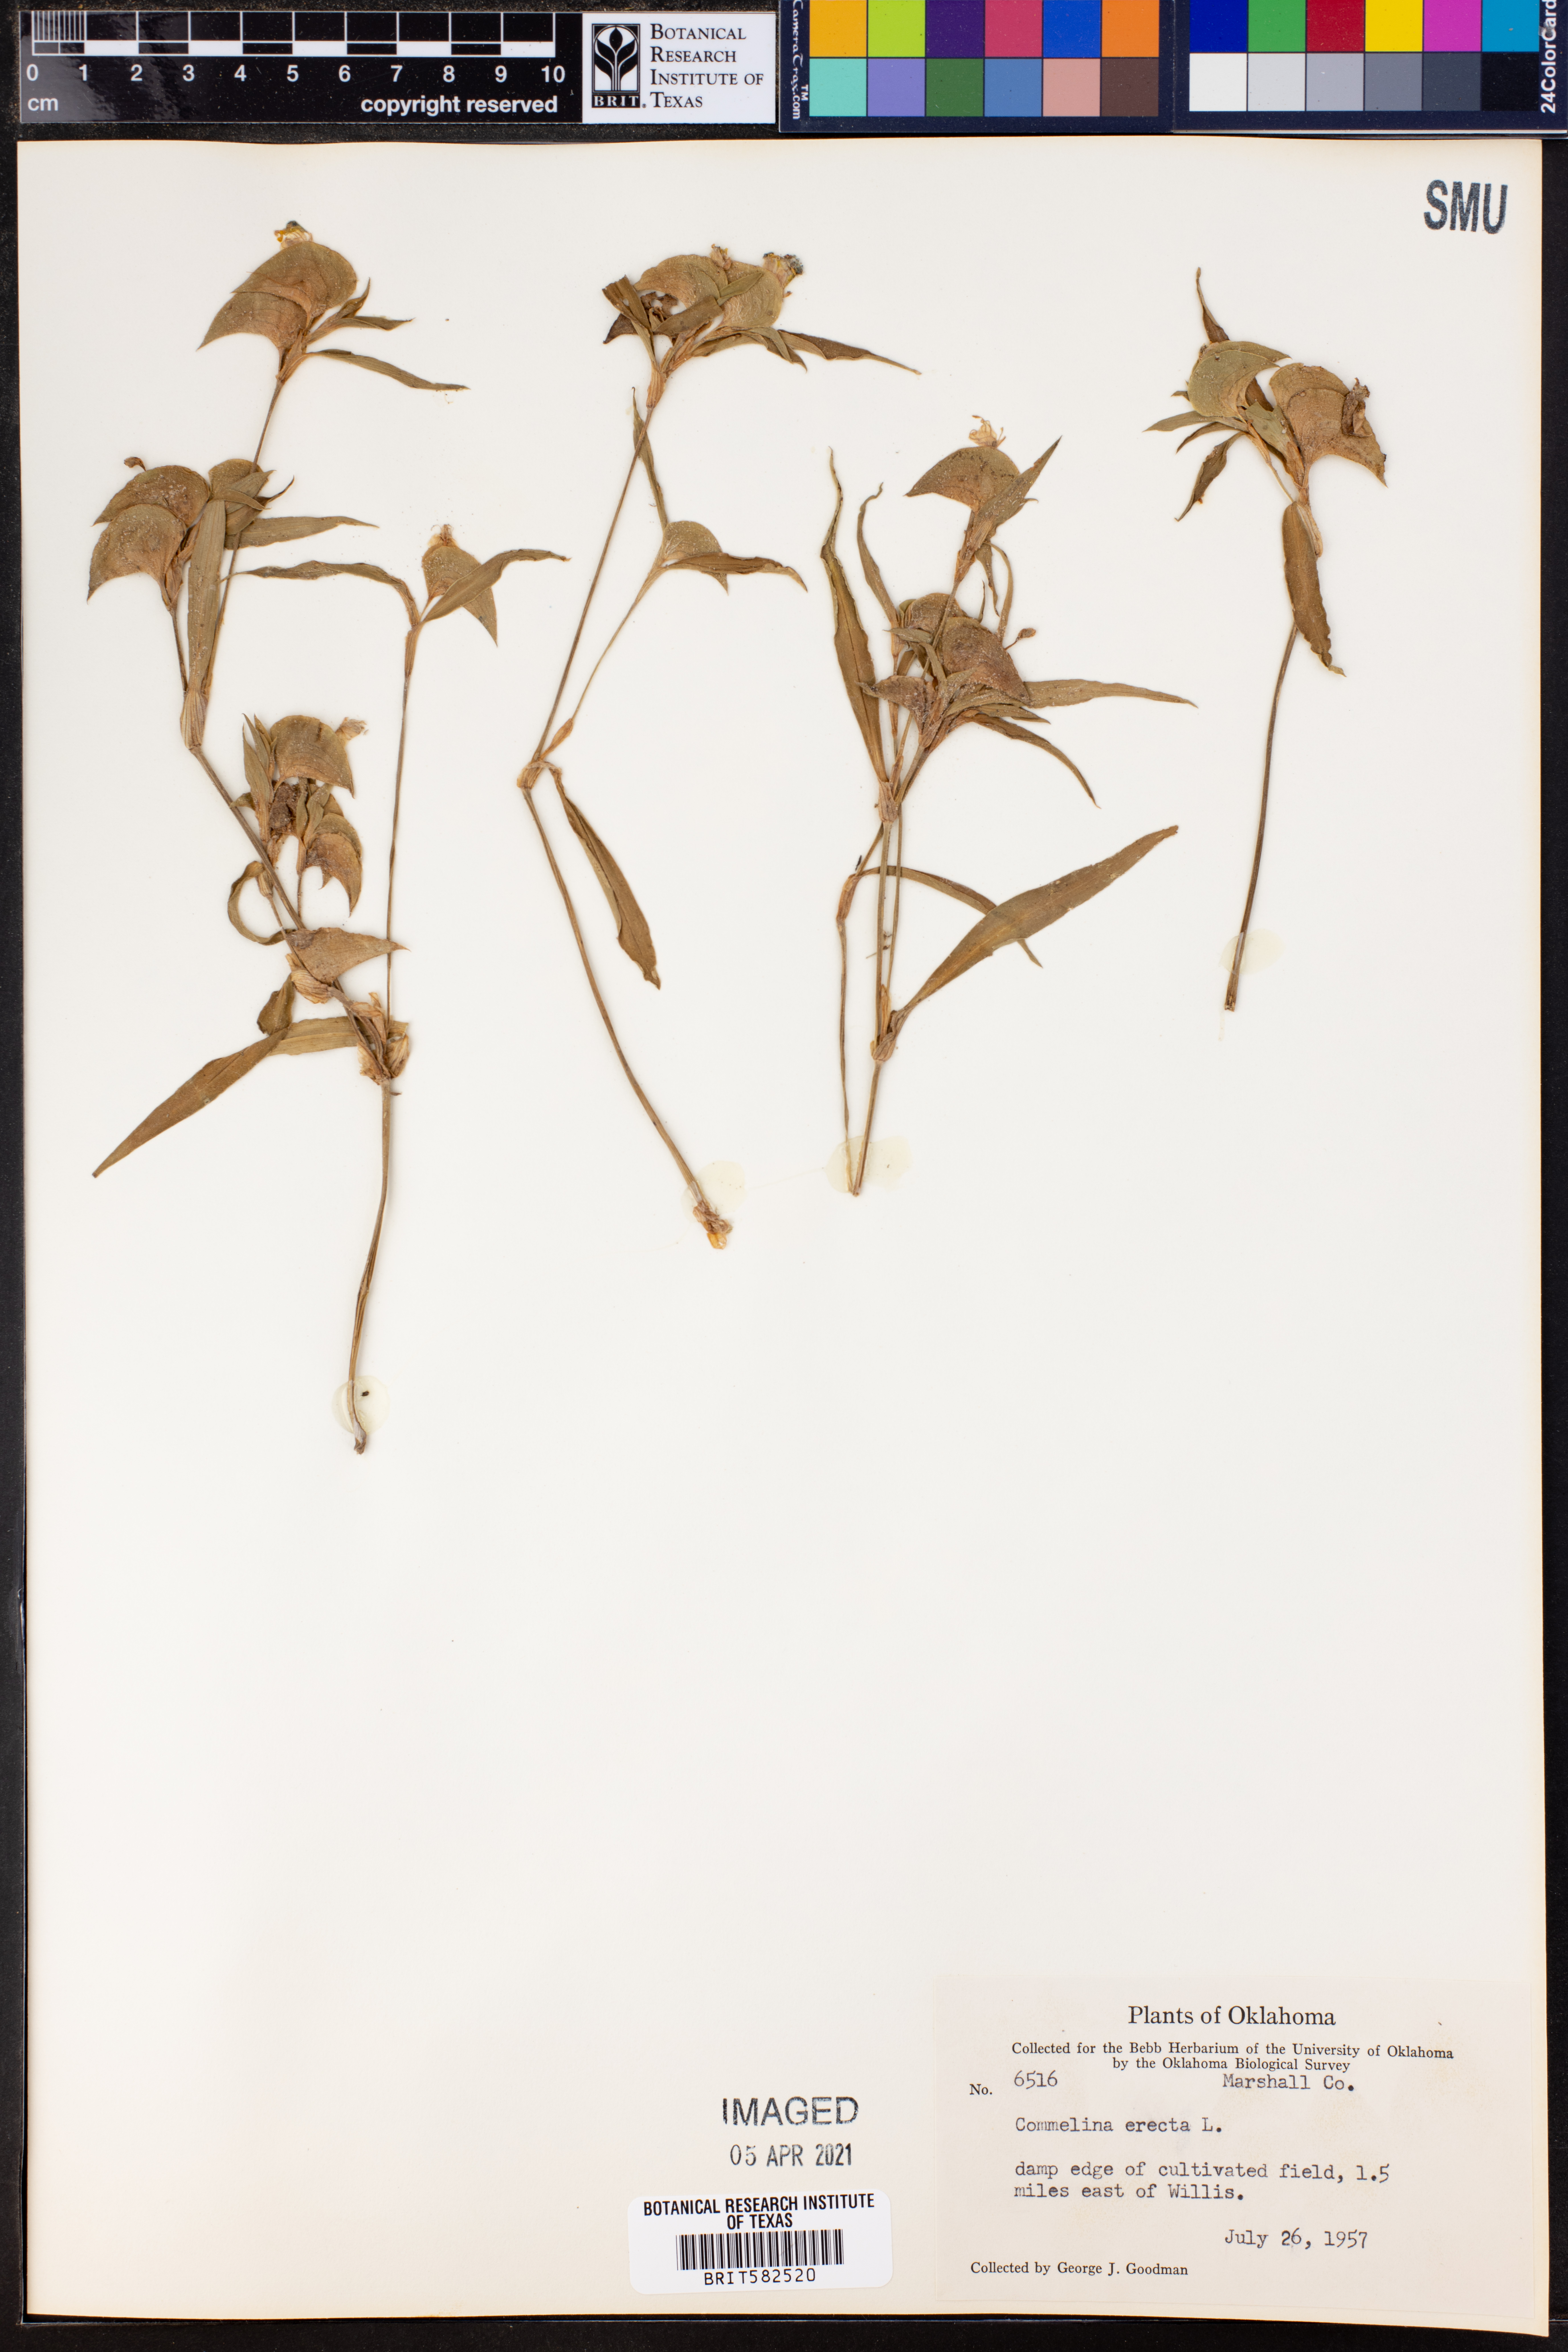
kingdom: Plantae
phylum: Tracheophyta
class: Liliopsida
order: Commelinales
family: Commelinaceae
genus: Commelina
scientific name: Commelina erecta
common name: Blousel blommetjie
